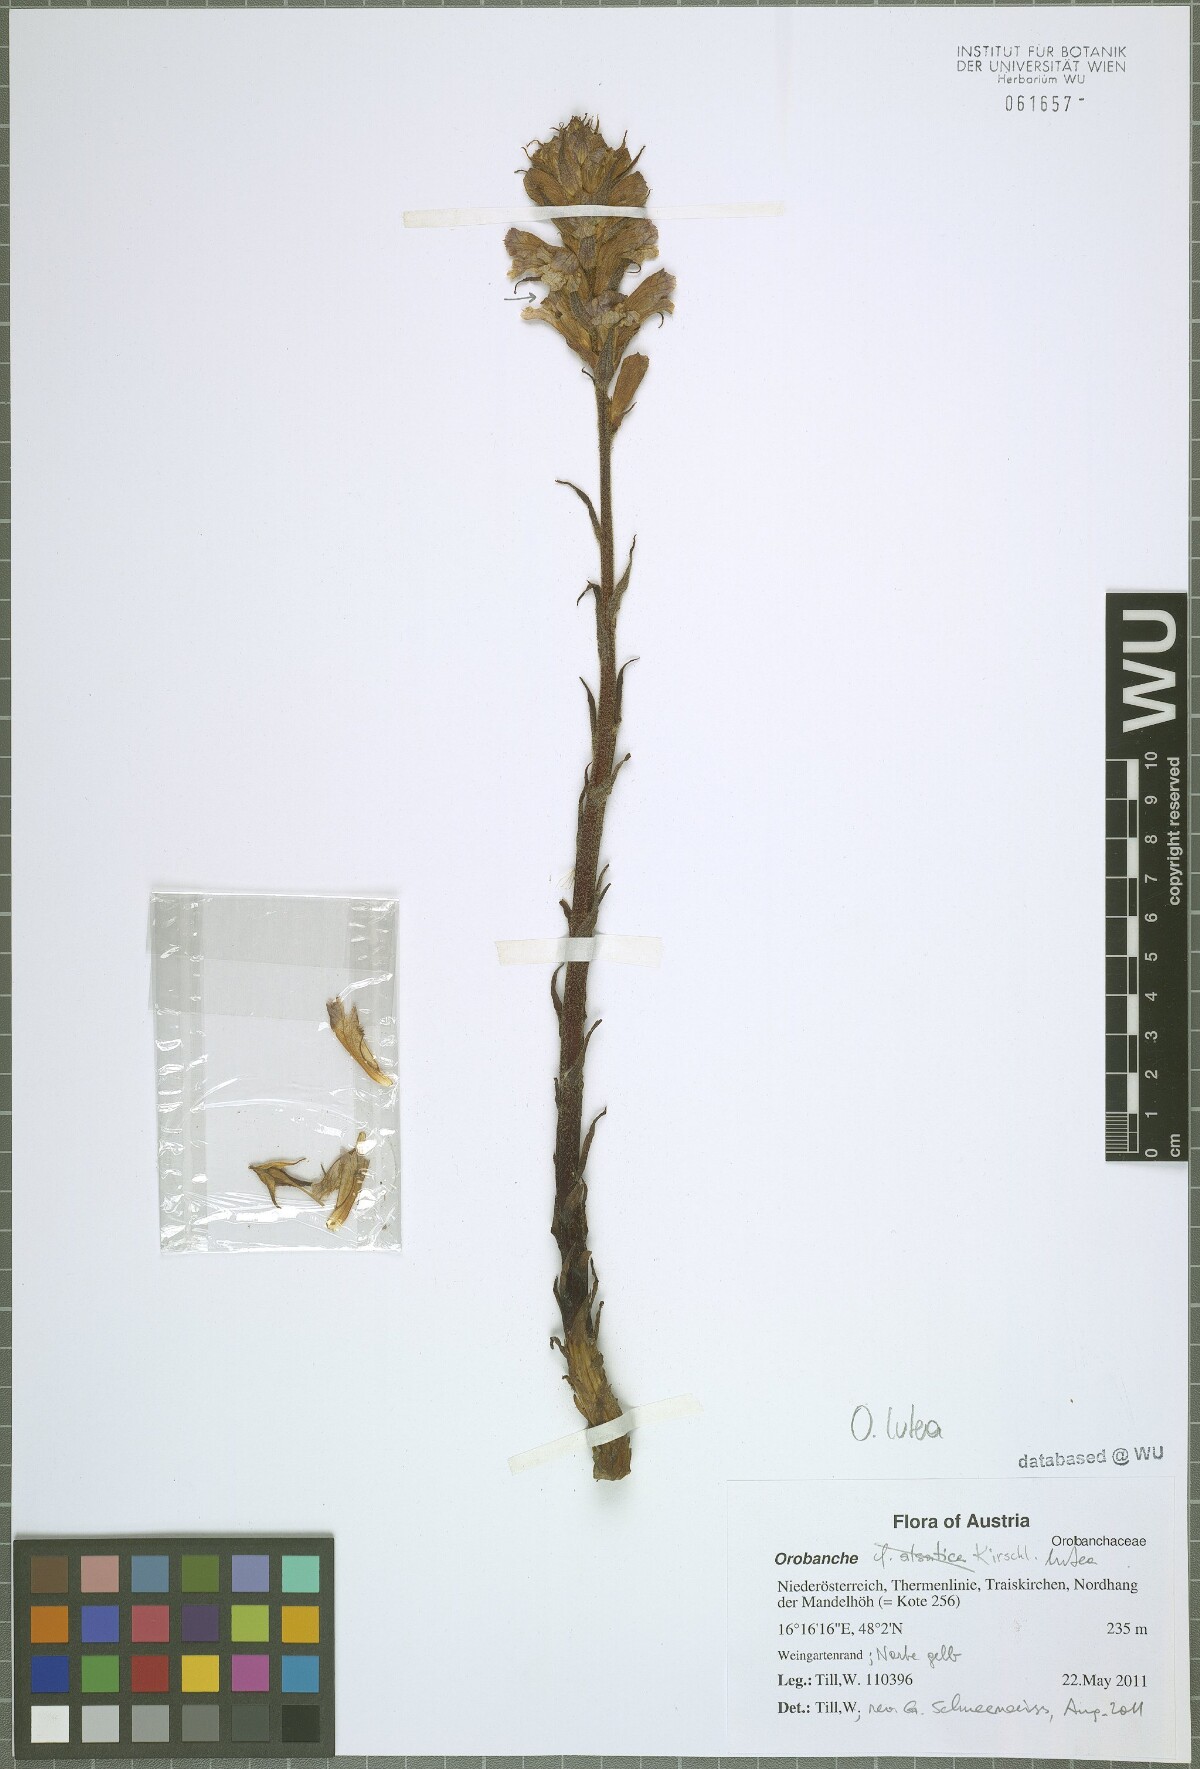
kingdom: Plantae
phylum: Tracheophyta
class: Magnoliopsida
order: Lamiales
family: Orobanchaceae
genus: Orobanche
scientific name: Orobanche lutea
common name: Yellow broomrape
